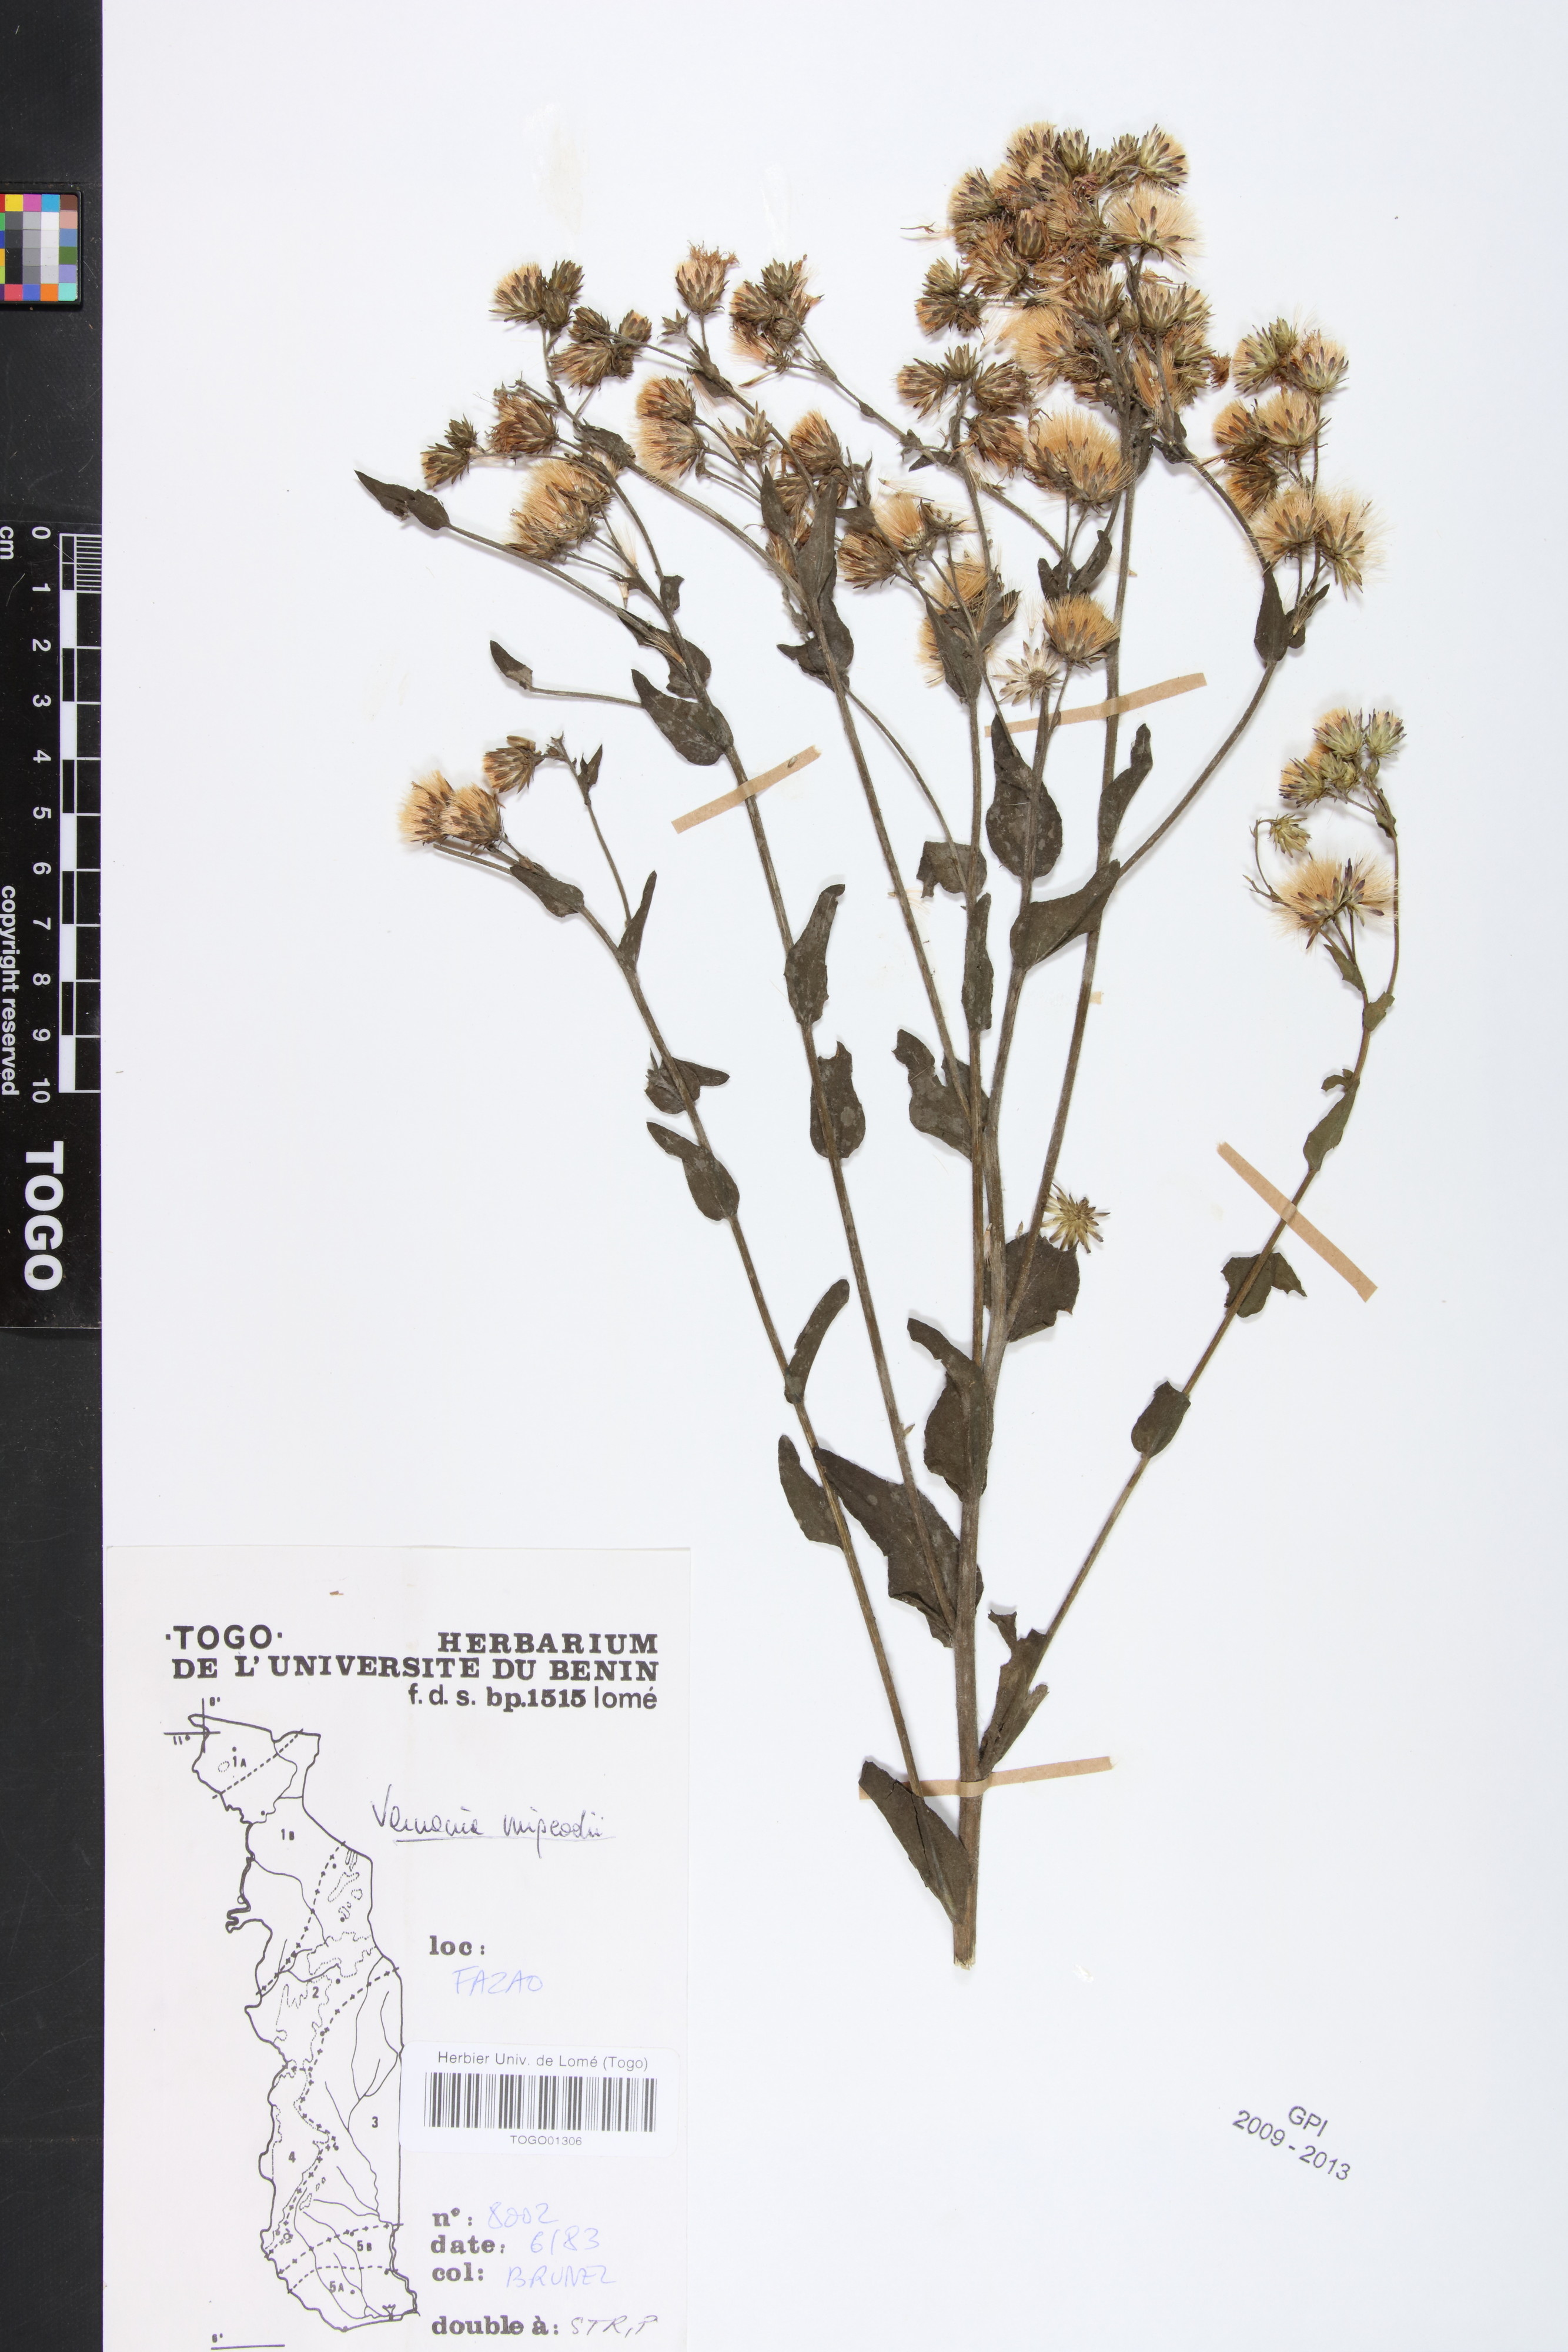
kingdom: Plantae
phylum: Tracheophyta
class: Magnoliopsida
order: Asterales
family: Asteraceae
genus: Vernoniastrum
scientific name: Vernoniastrum migeodii
